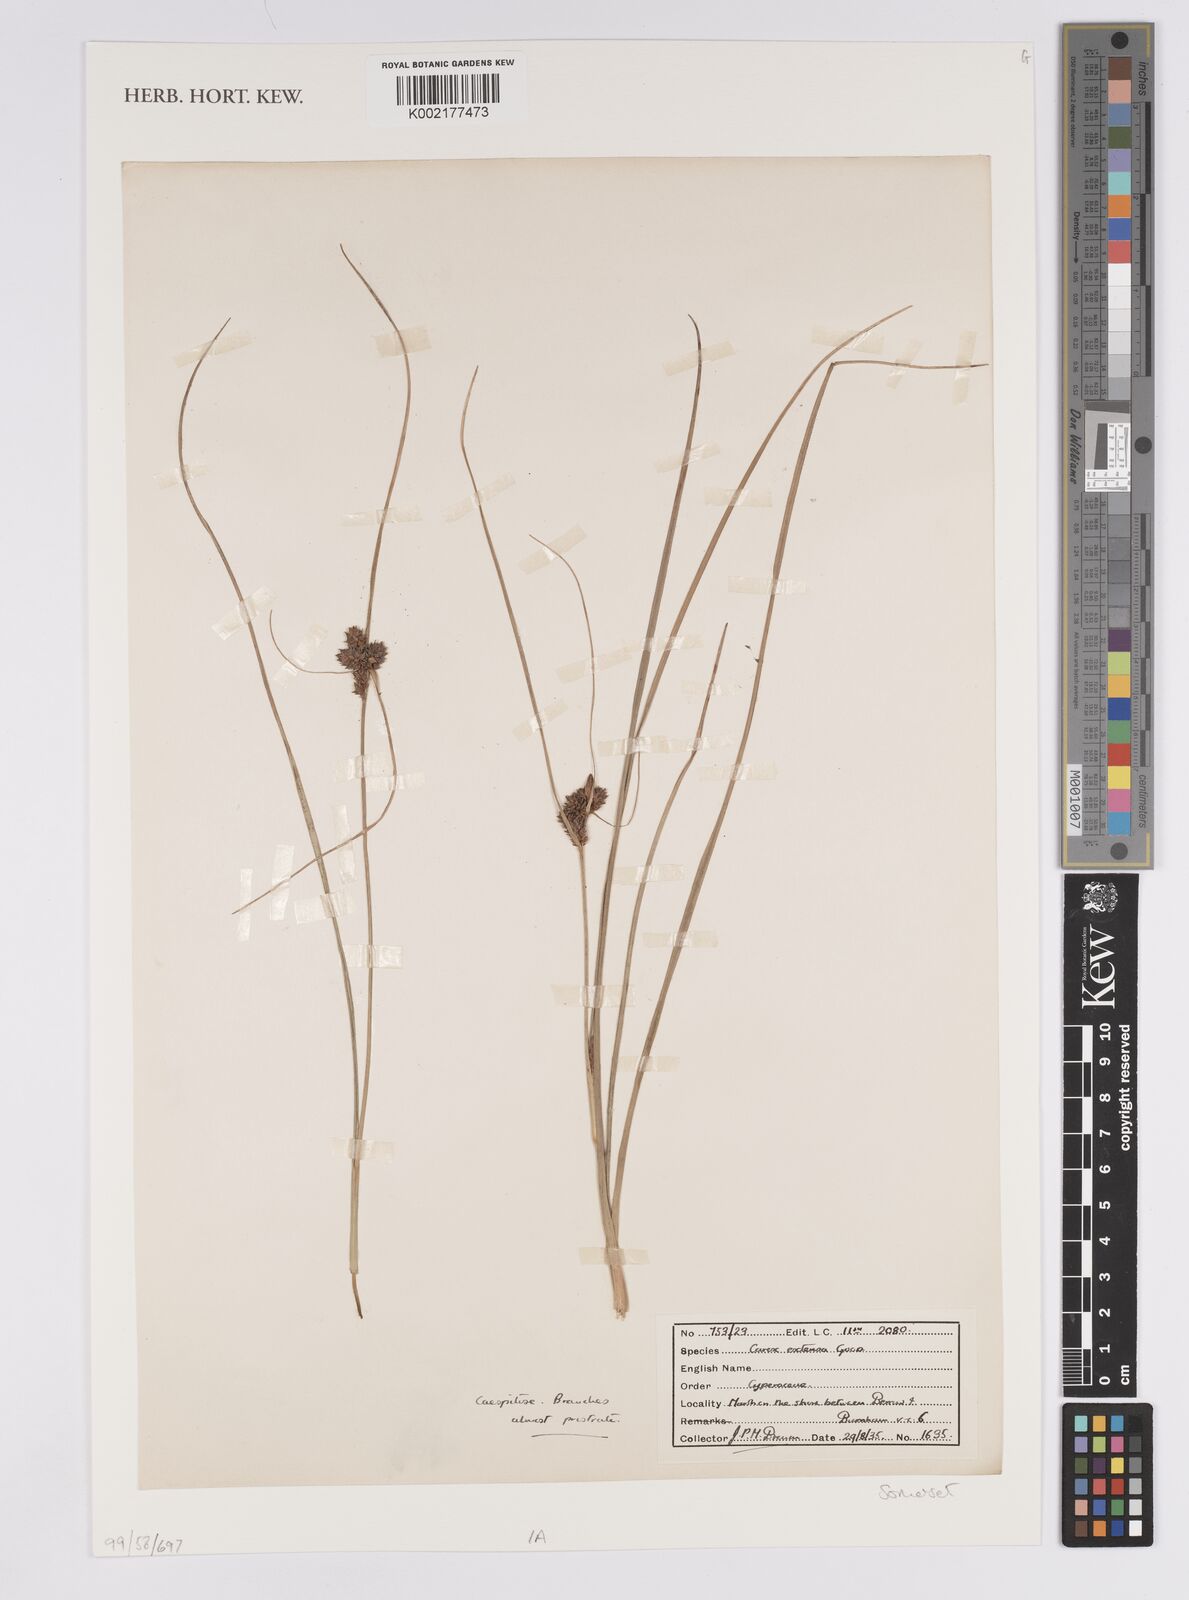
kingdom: Plantae
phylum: Tracheophyta
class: Liliopsida
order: Poales
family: Cyperaceae
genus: Carex
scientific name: Carex extensa
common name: Long-bracted sedge
